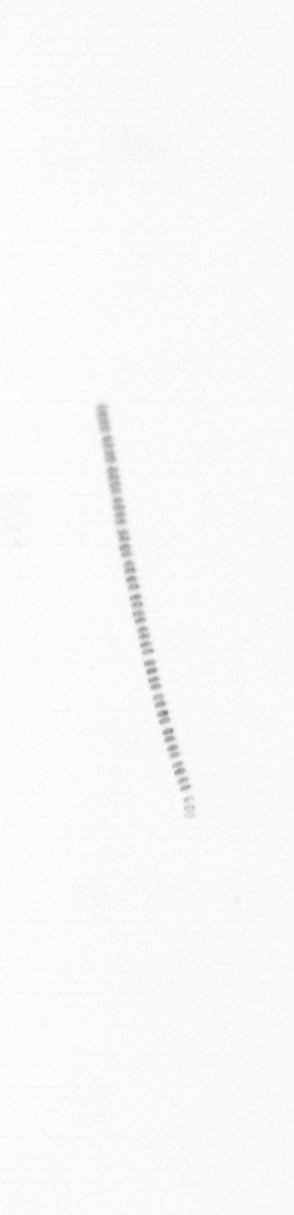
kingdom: Chromista
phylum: Ochrophyta
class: Bacillariophyceae
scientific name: Bacillariophyceae
